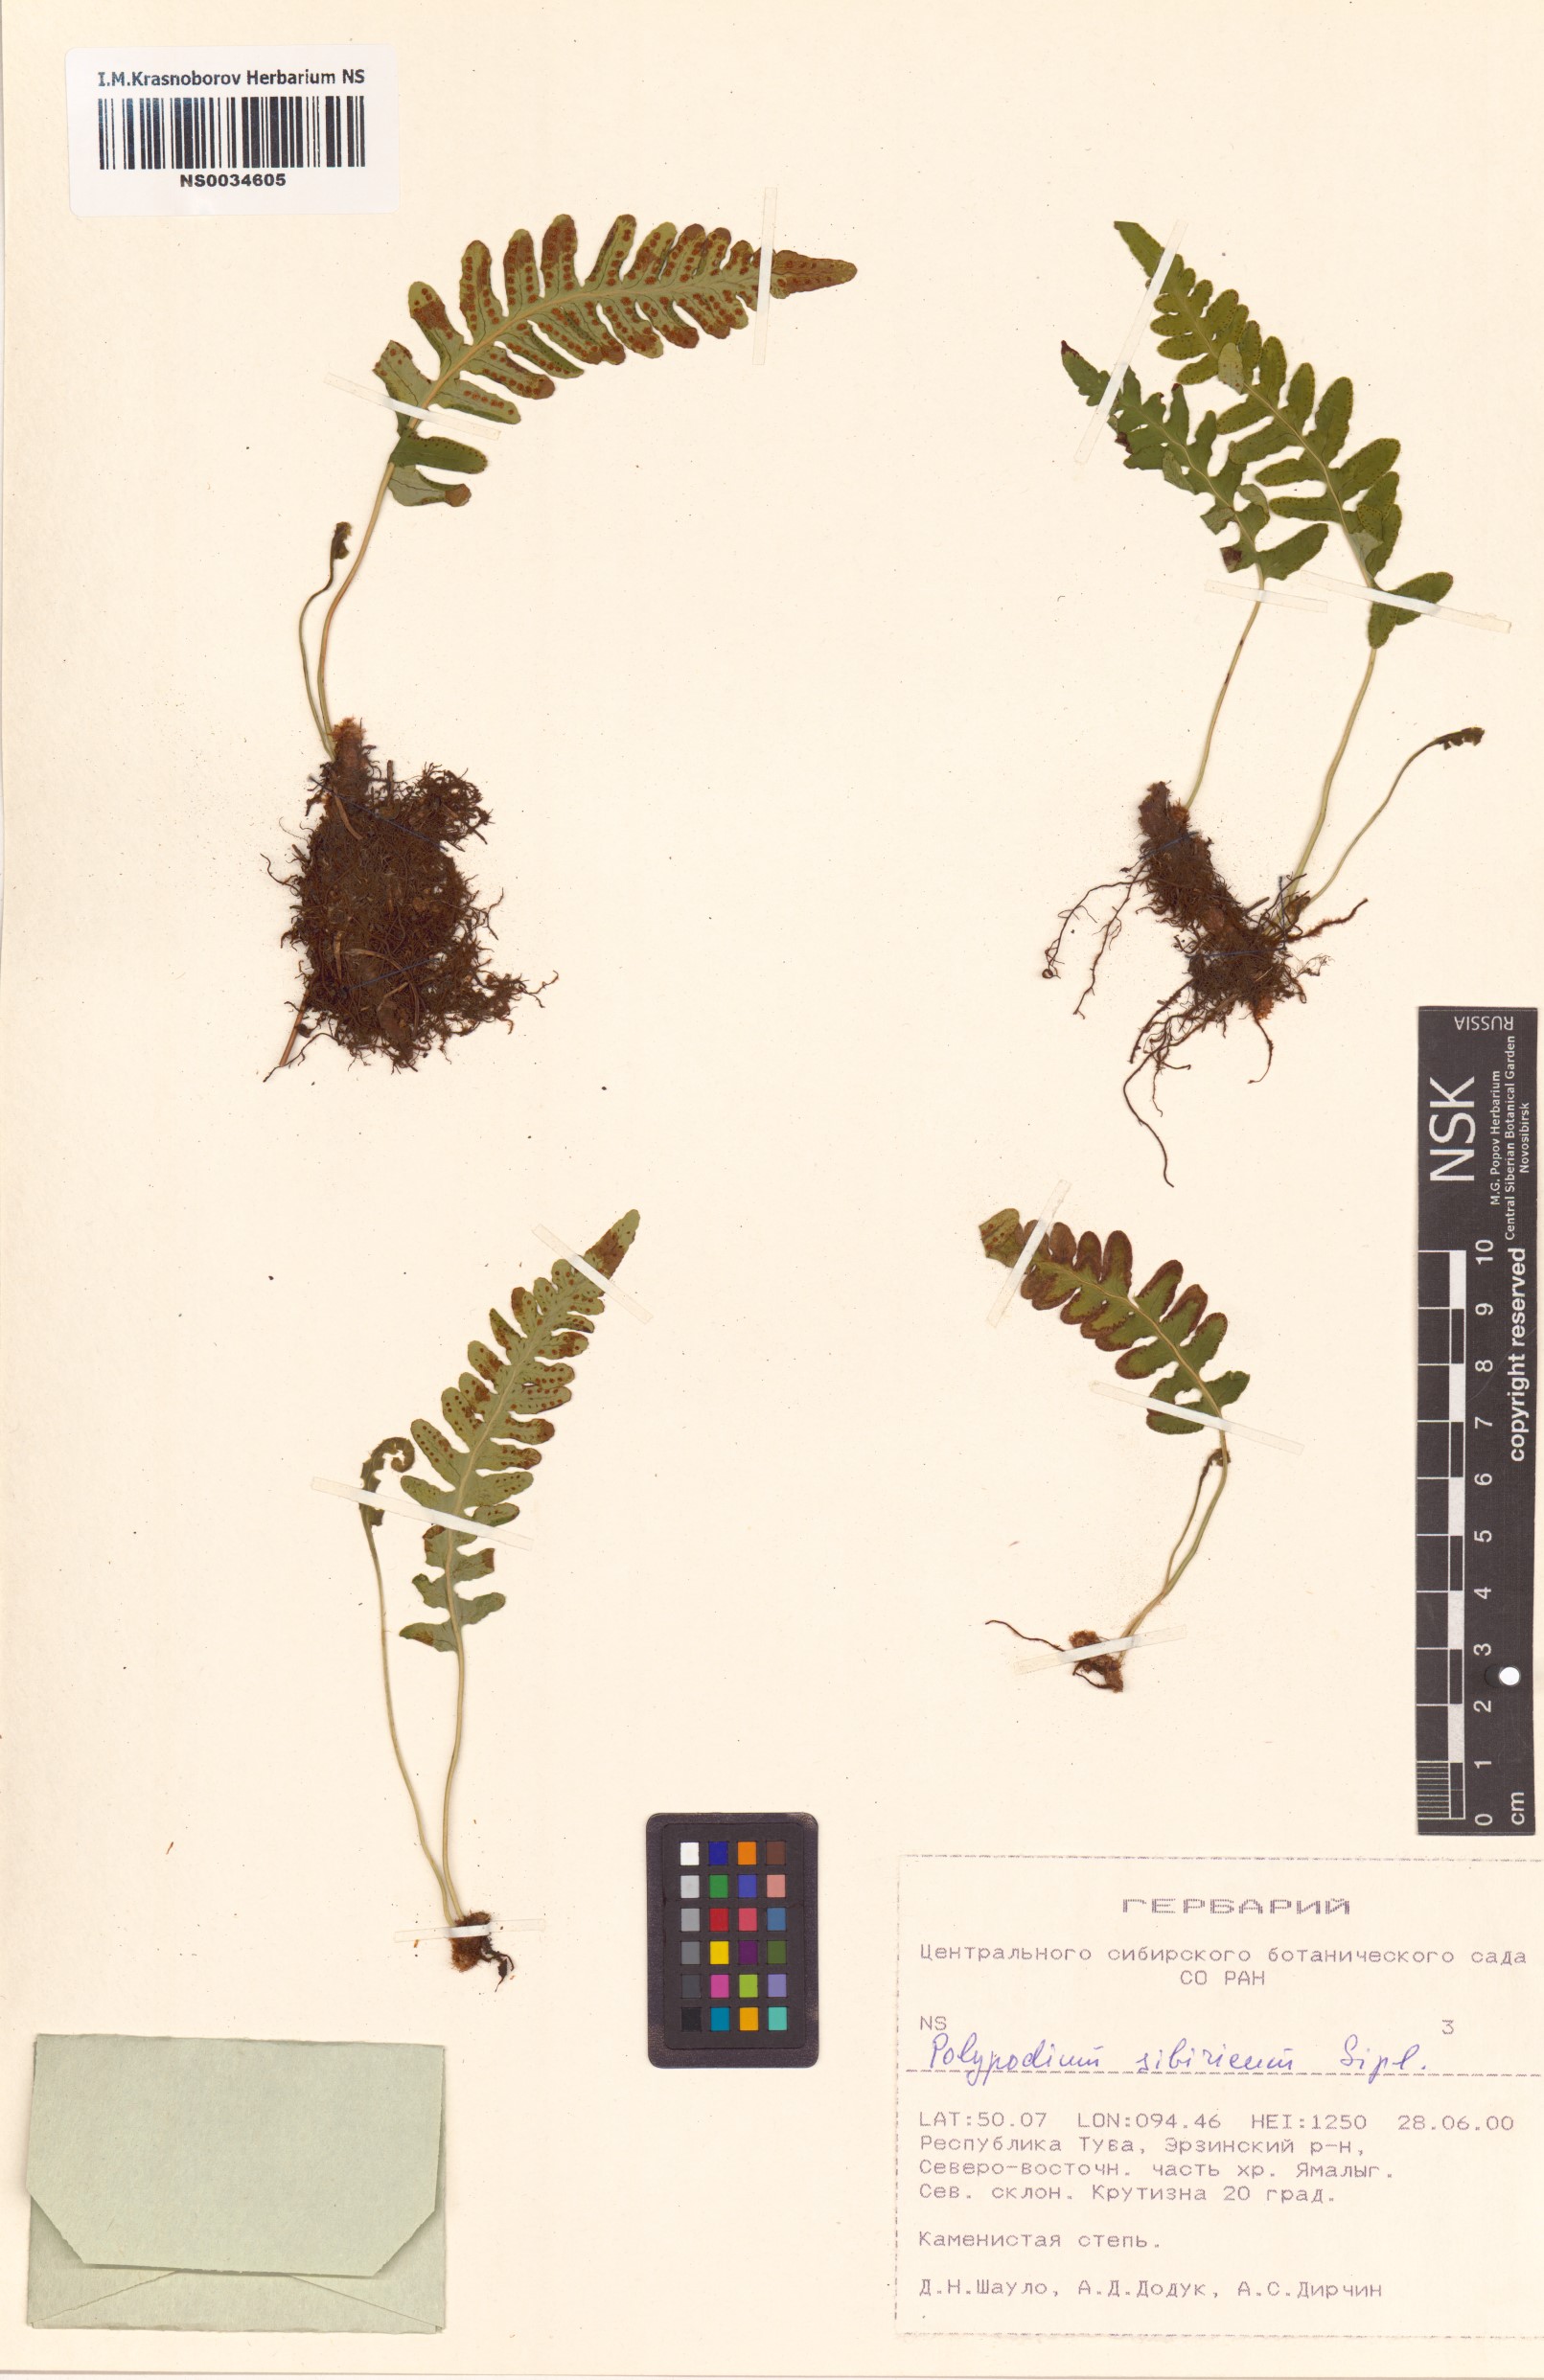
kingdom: Plantae
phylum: Tracheophyta
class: Polypodiopsida
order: Polypodiales
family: Polypodiaceae
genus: Polypodium
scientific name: Polypodium sibiricum
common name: Siberian polypody
